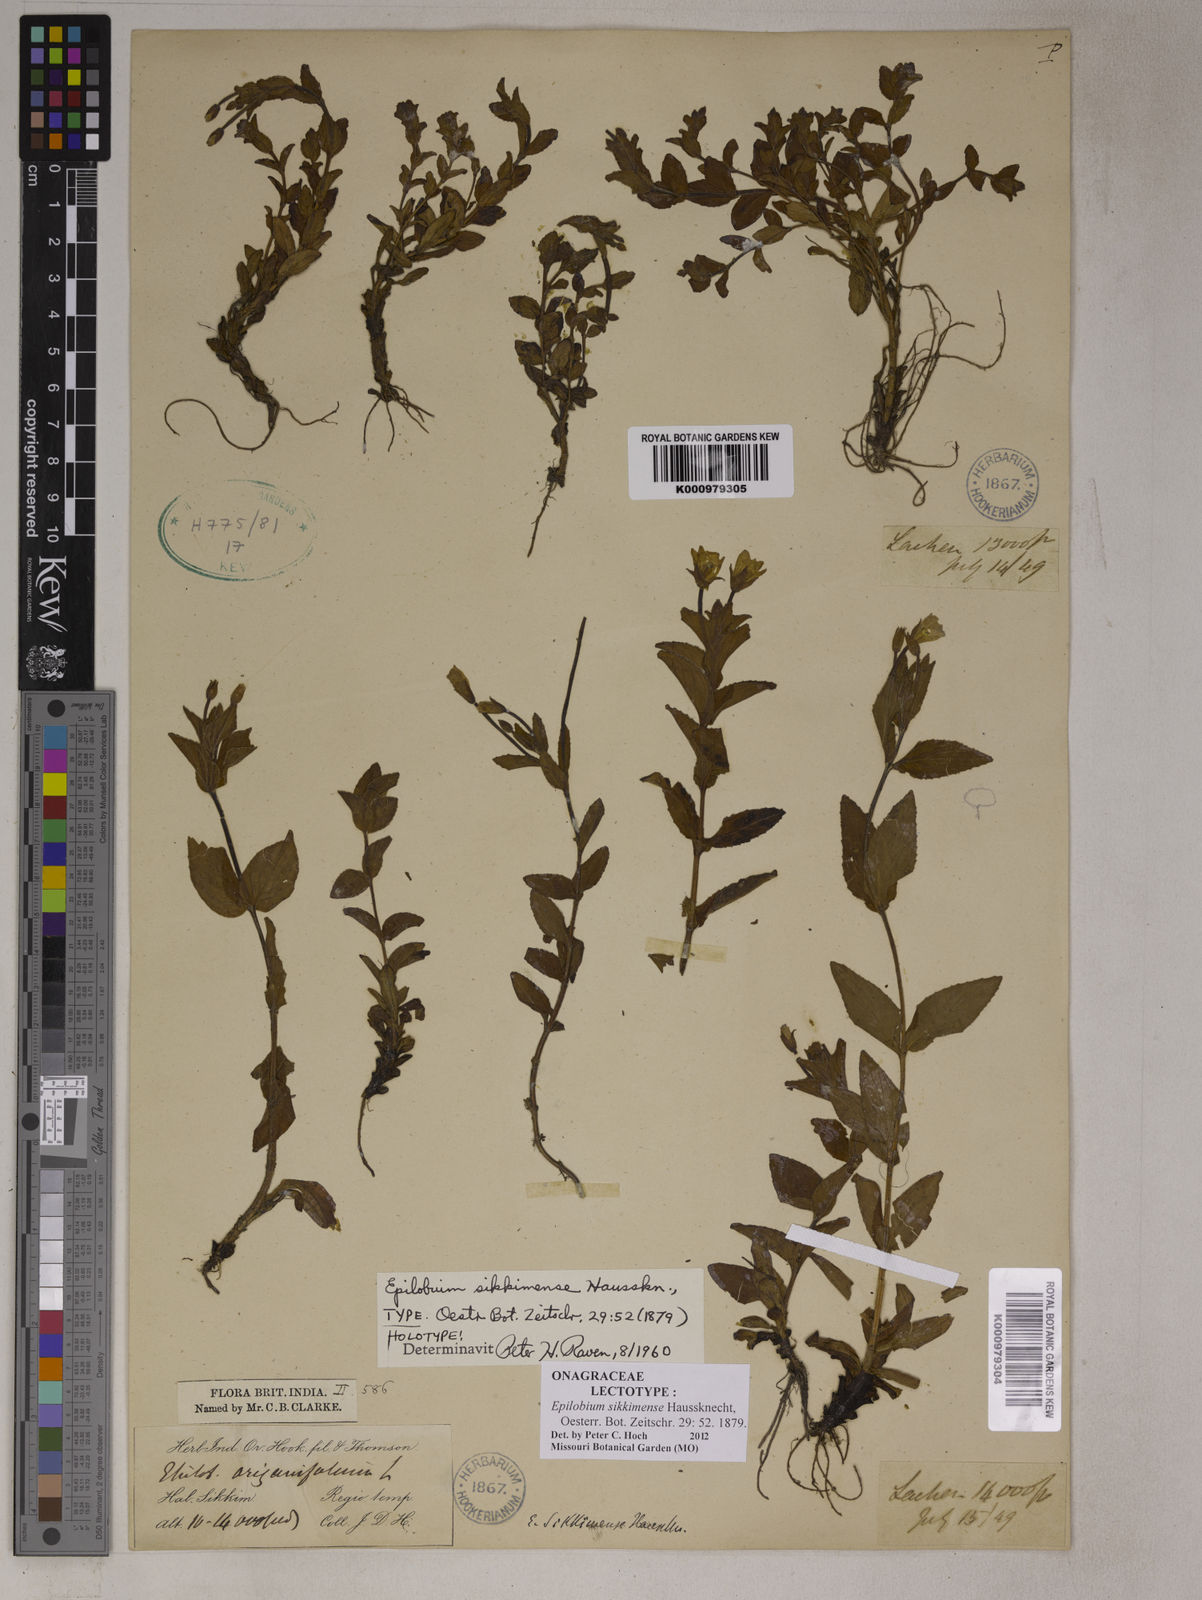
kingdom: Plantae
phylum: Tracheophyta
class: Magnoliopsida
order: Myrtales
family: Onagraceae
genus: Epilobium
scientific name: Epilobium sikkimense
